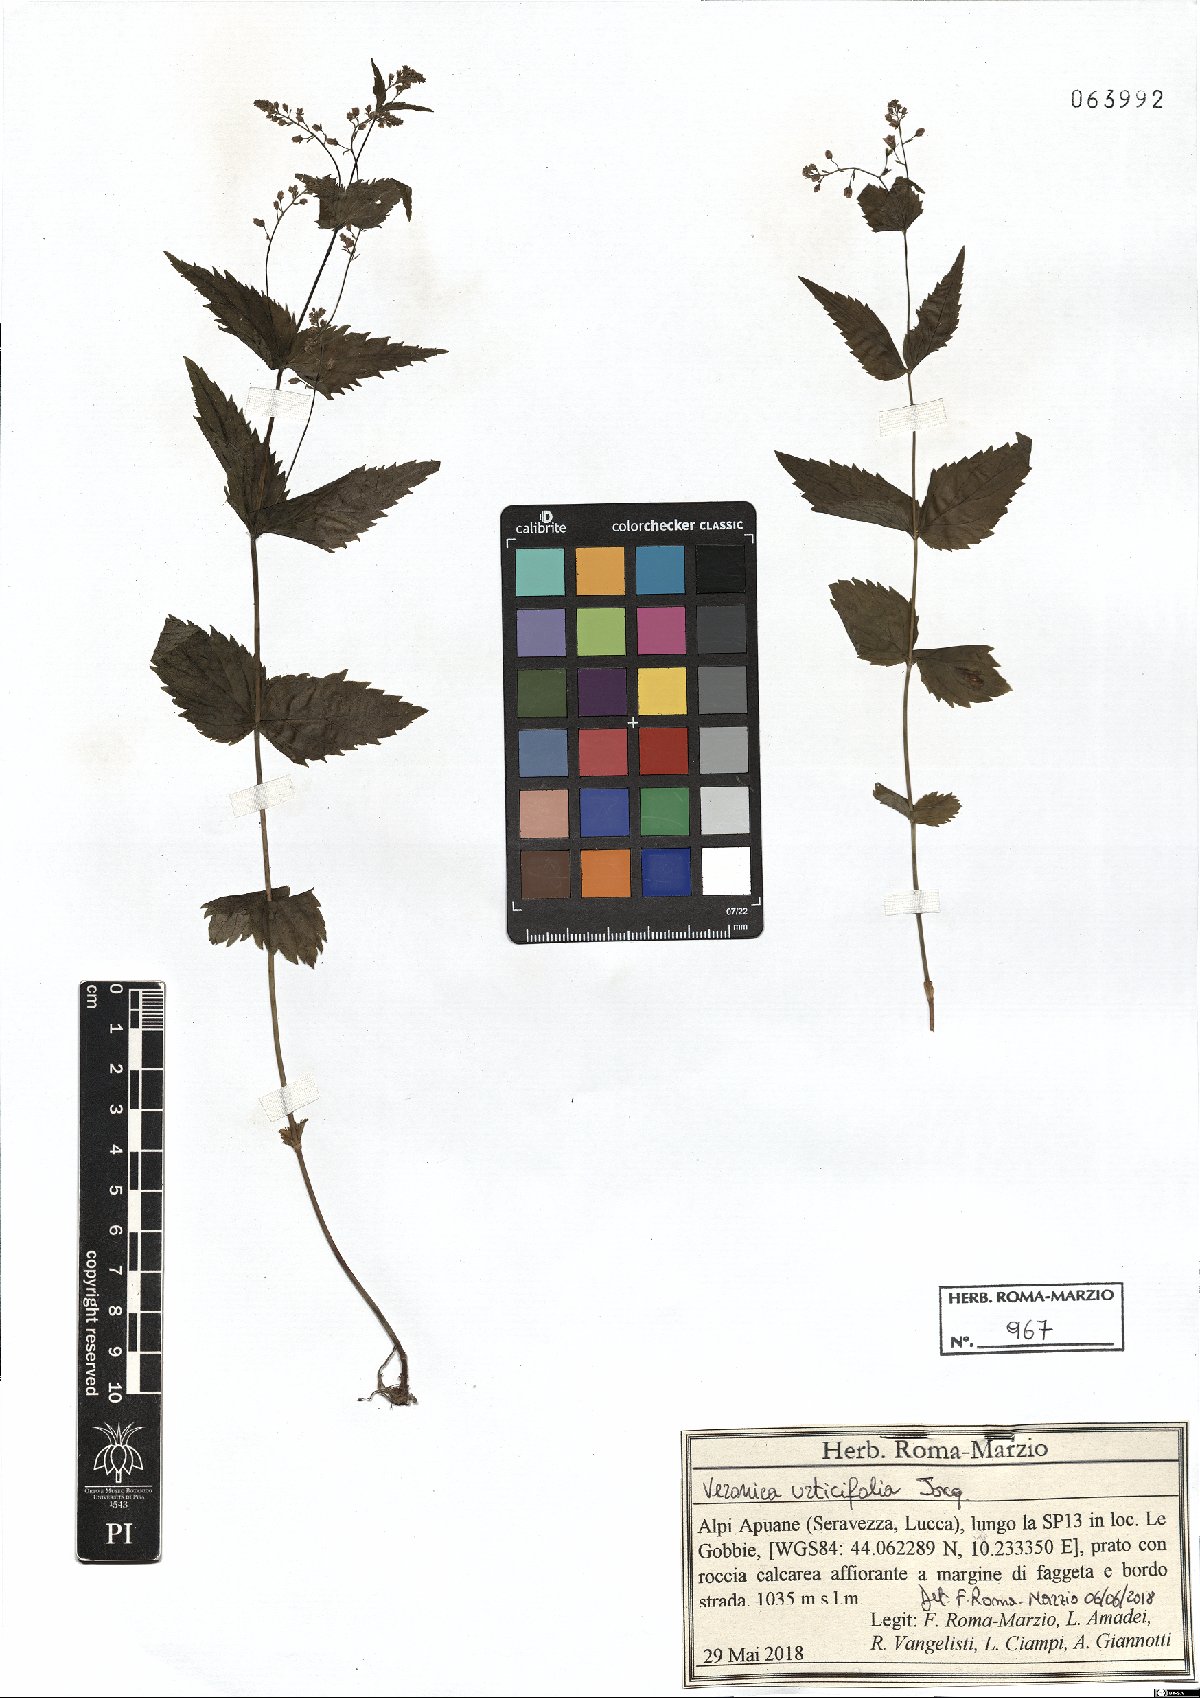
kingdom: Plantae
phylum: Tracheophyta
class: Magnoliopsida
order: Lamiales
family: Plantaginaceae
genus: Veronica
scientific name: Veronica urticifolia
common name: Nettle-leaf speedwell
